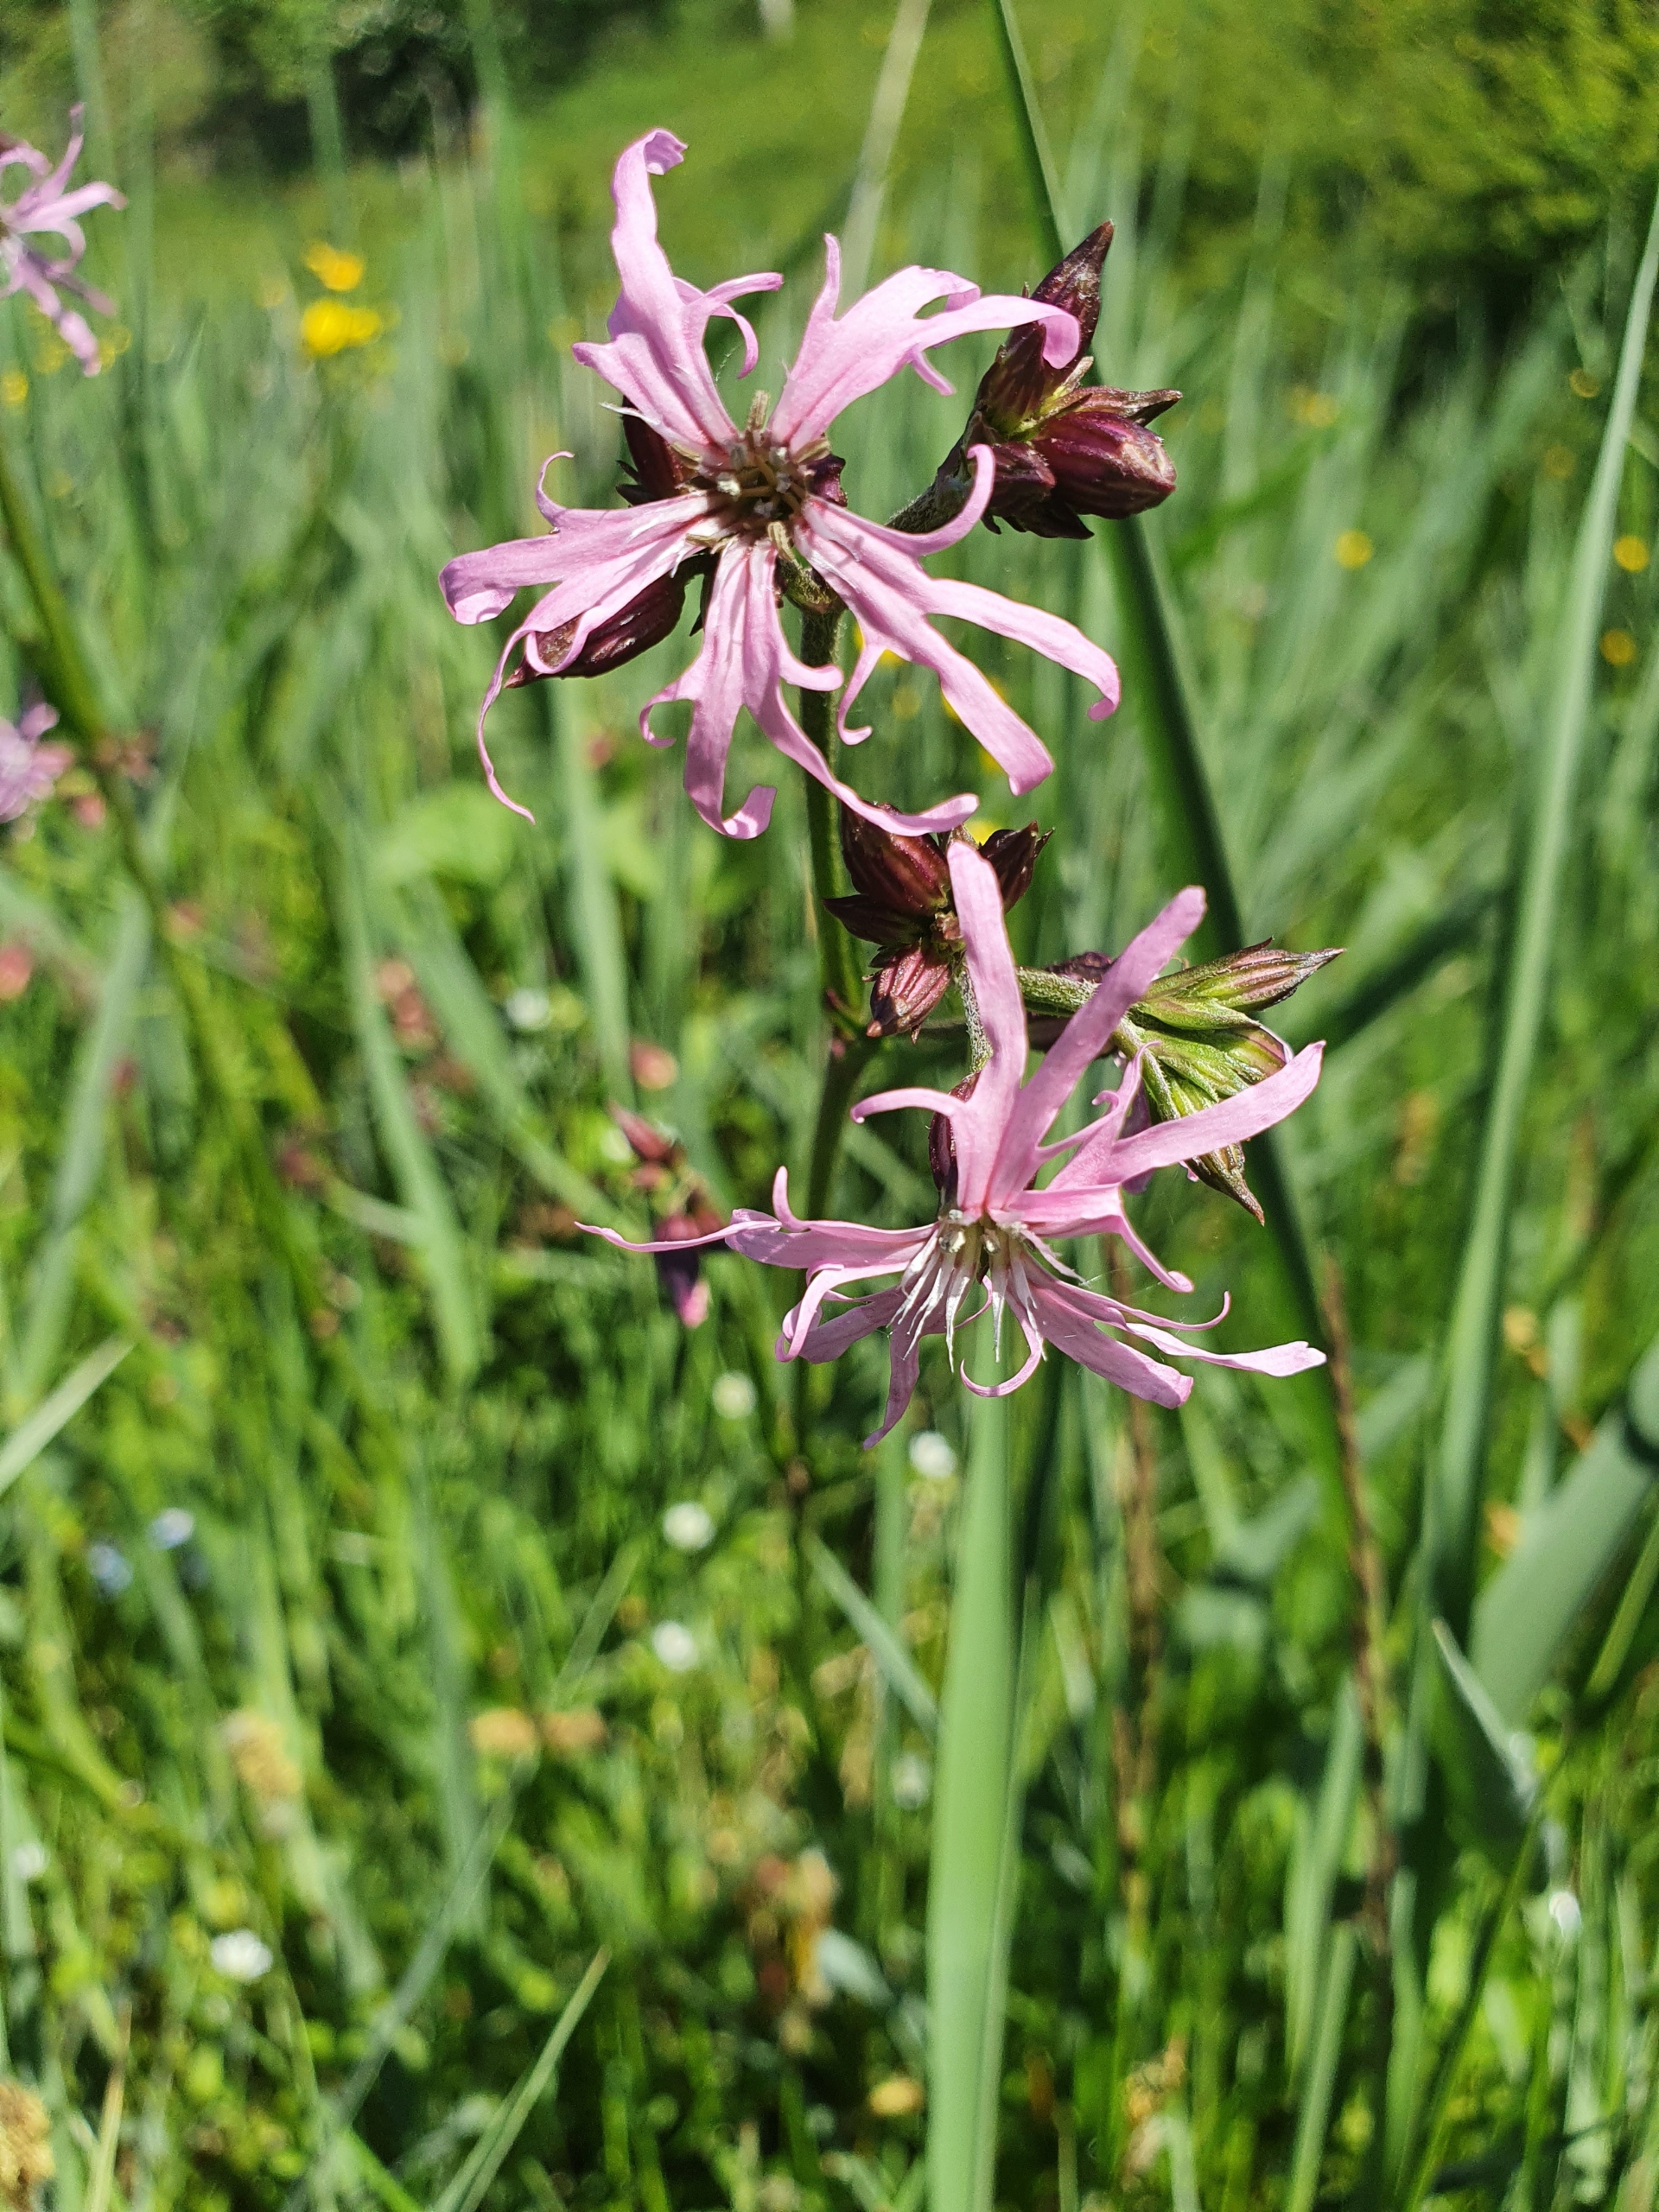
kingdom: Plantae
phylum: Tracheophyta
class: Magnoliopsida
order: Caryophyllales
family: Caryophyllaceae
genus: Silene
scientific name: Silene flos-cuculi
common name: Trævlekrone
